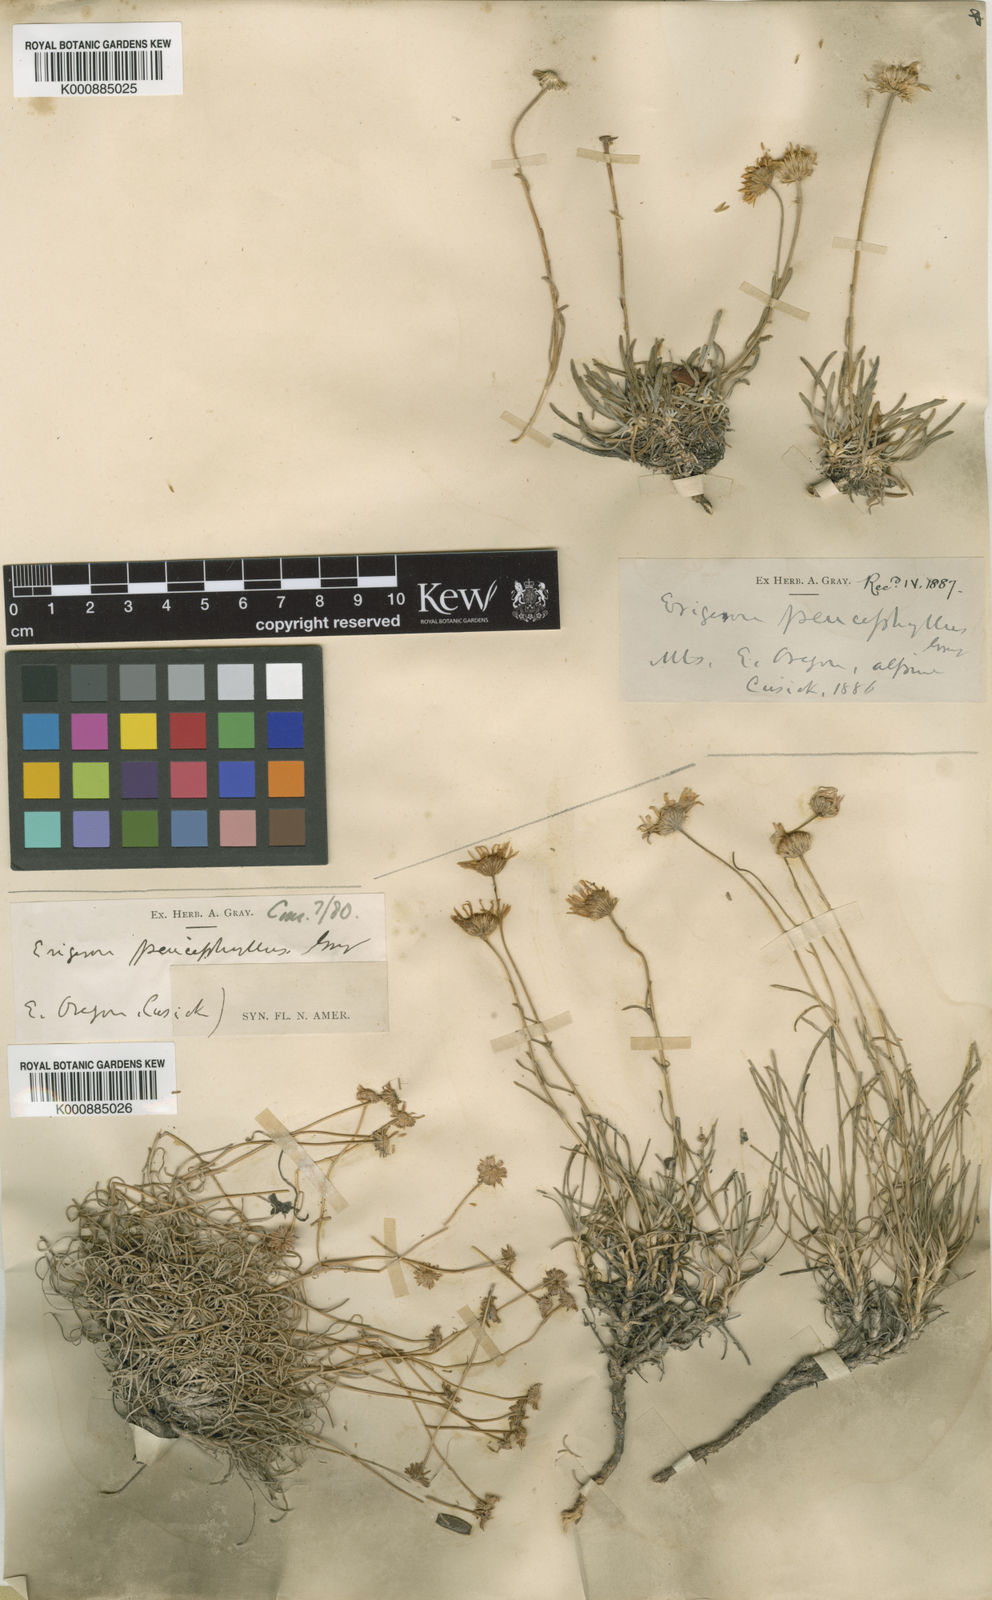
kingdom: Plantae
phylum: Tracheophyta
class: Magnoliopsida
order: Asterales
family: Asteraceae
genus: Erigeron
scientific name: Erigeron
